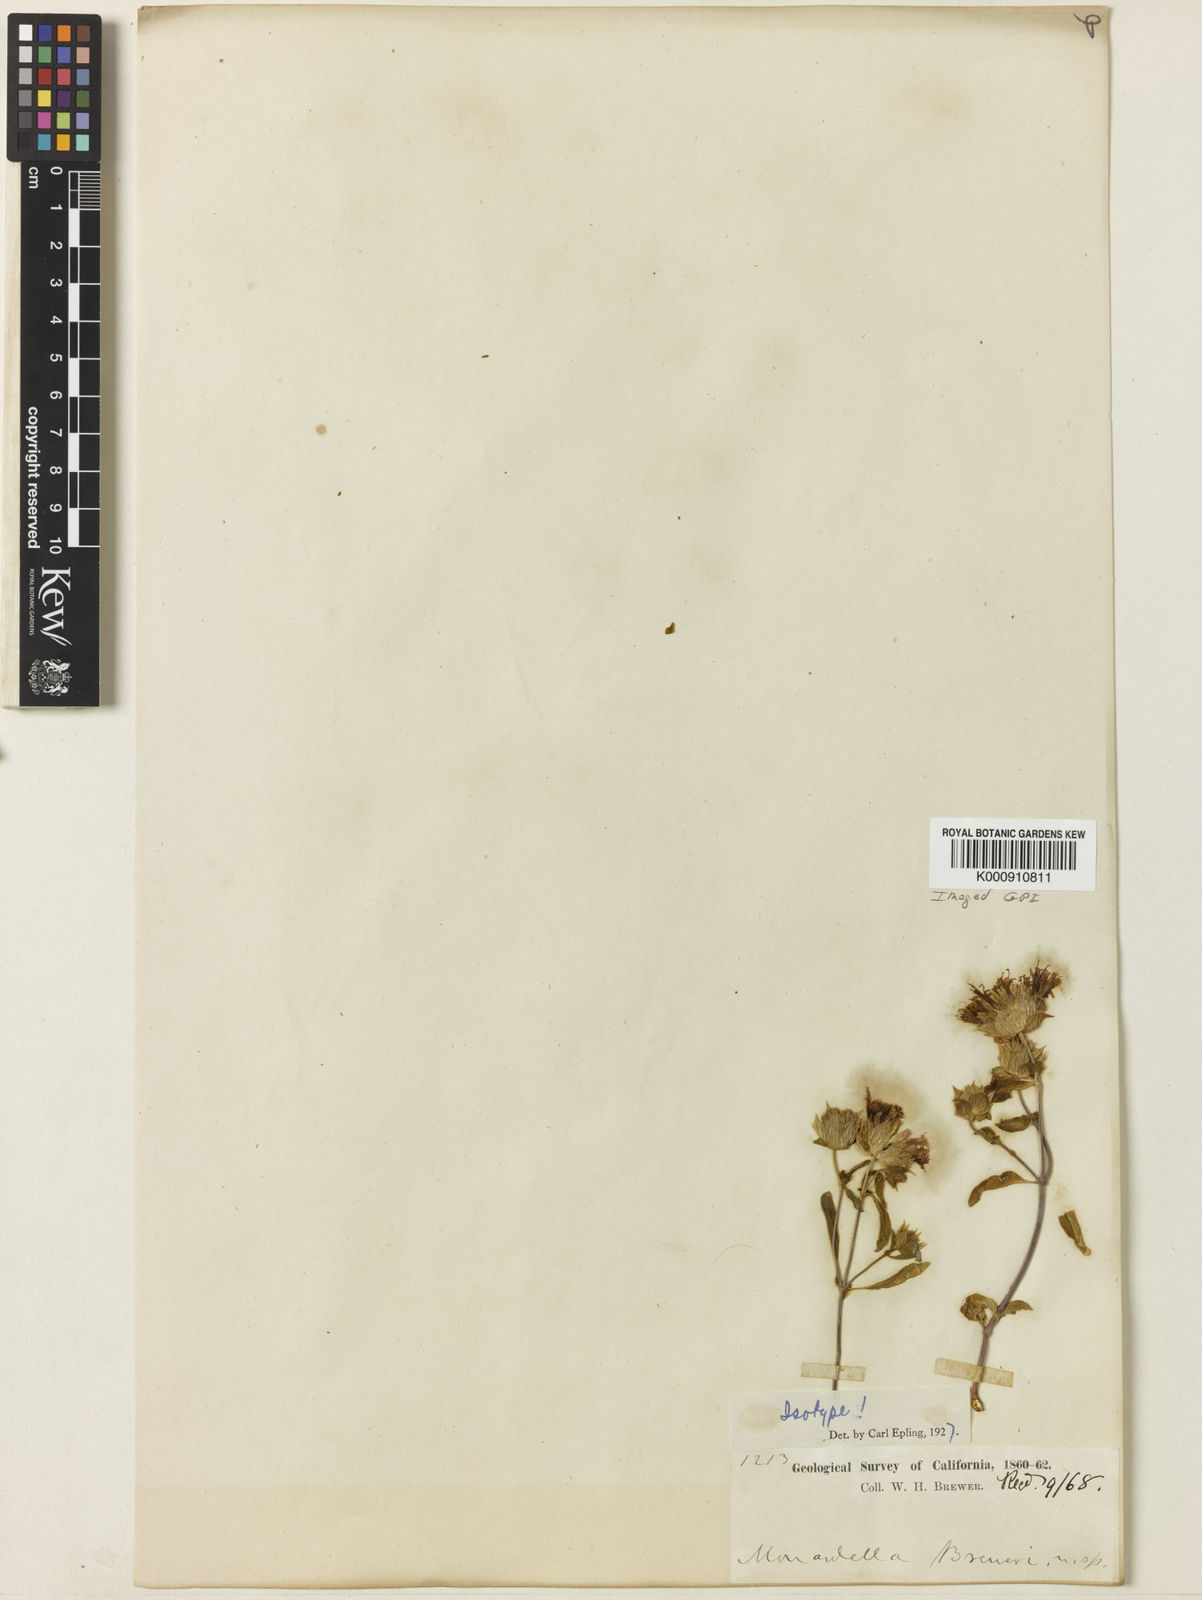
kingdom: Plantae
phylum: Tracheophyta
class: Magnoliopsida
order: Lamiales
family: Lamiaceae
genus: Monardella
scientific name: Monardella breweri
